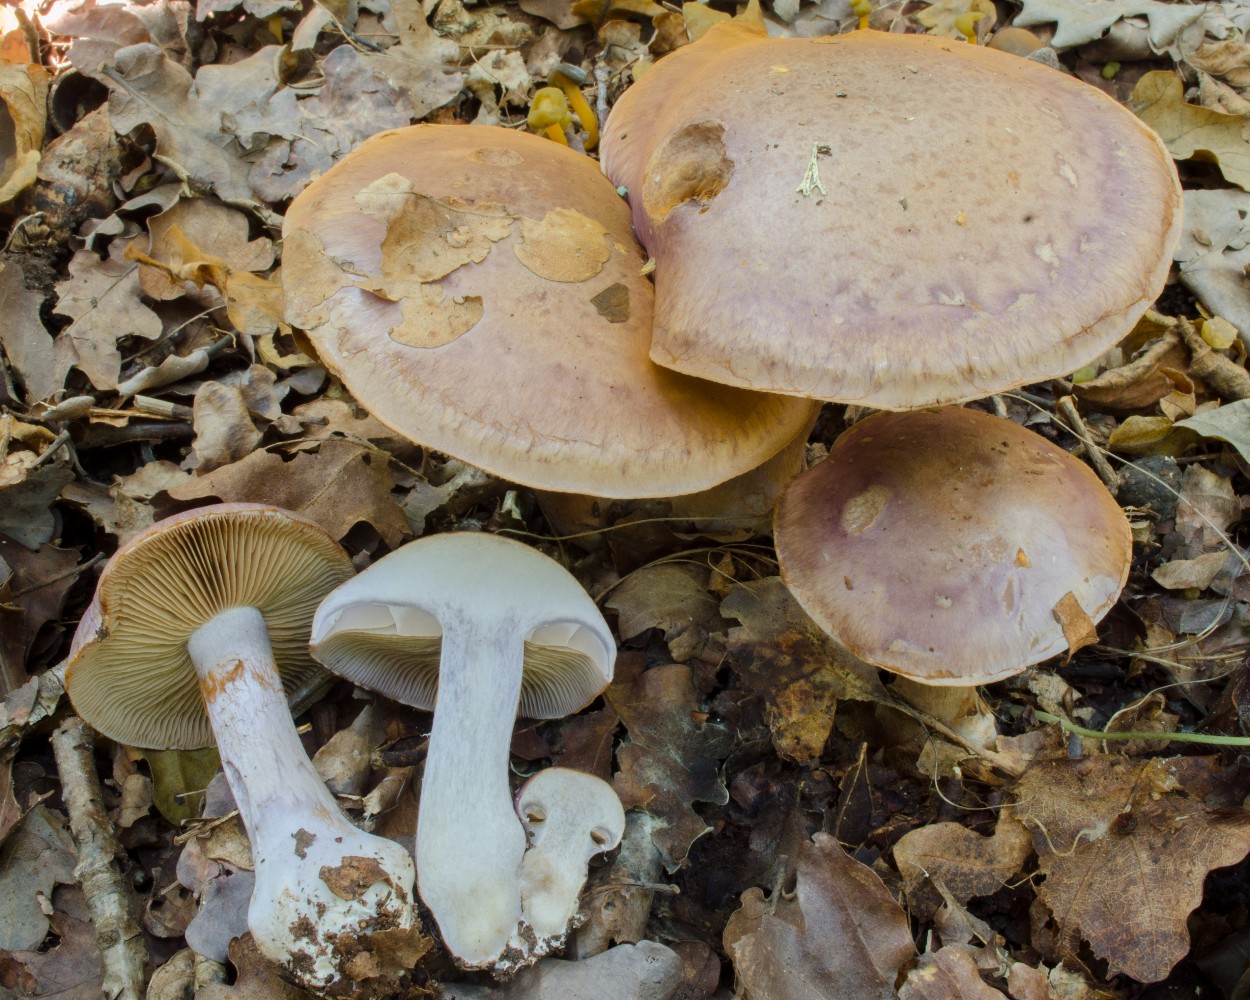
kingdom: Fungi
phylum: Basidiomycota
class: Agaricomycetes
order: Agaricales
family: Cortinariaceae
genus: Cortinarius
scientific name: Cortinarius
